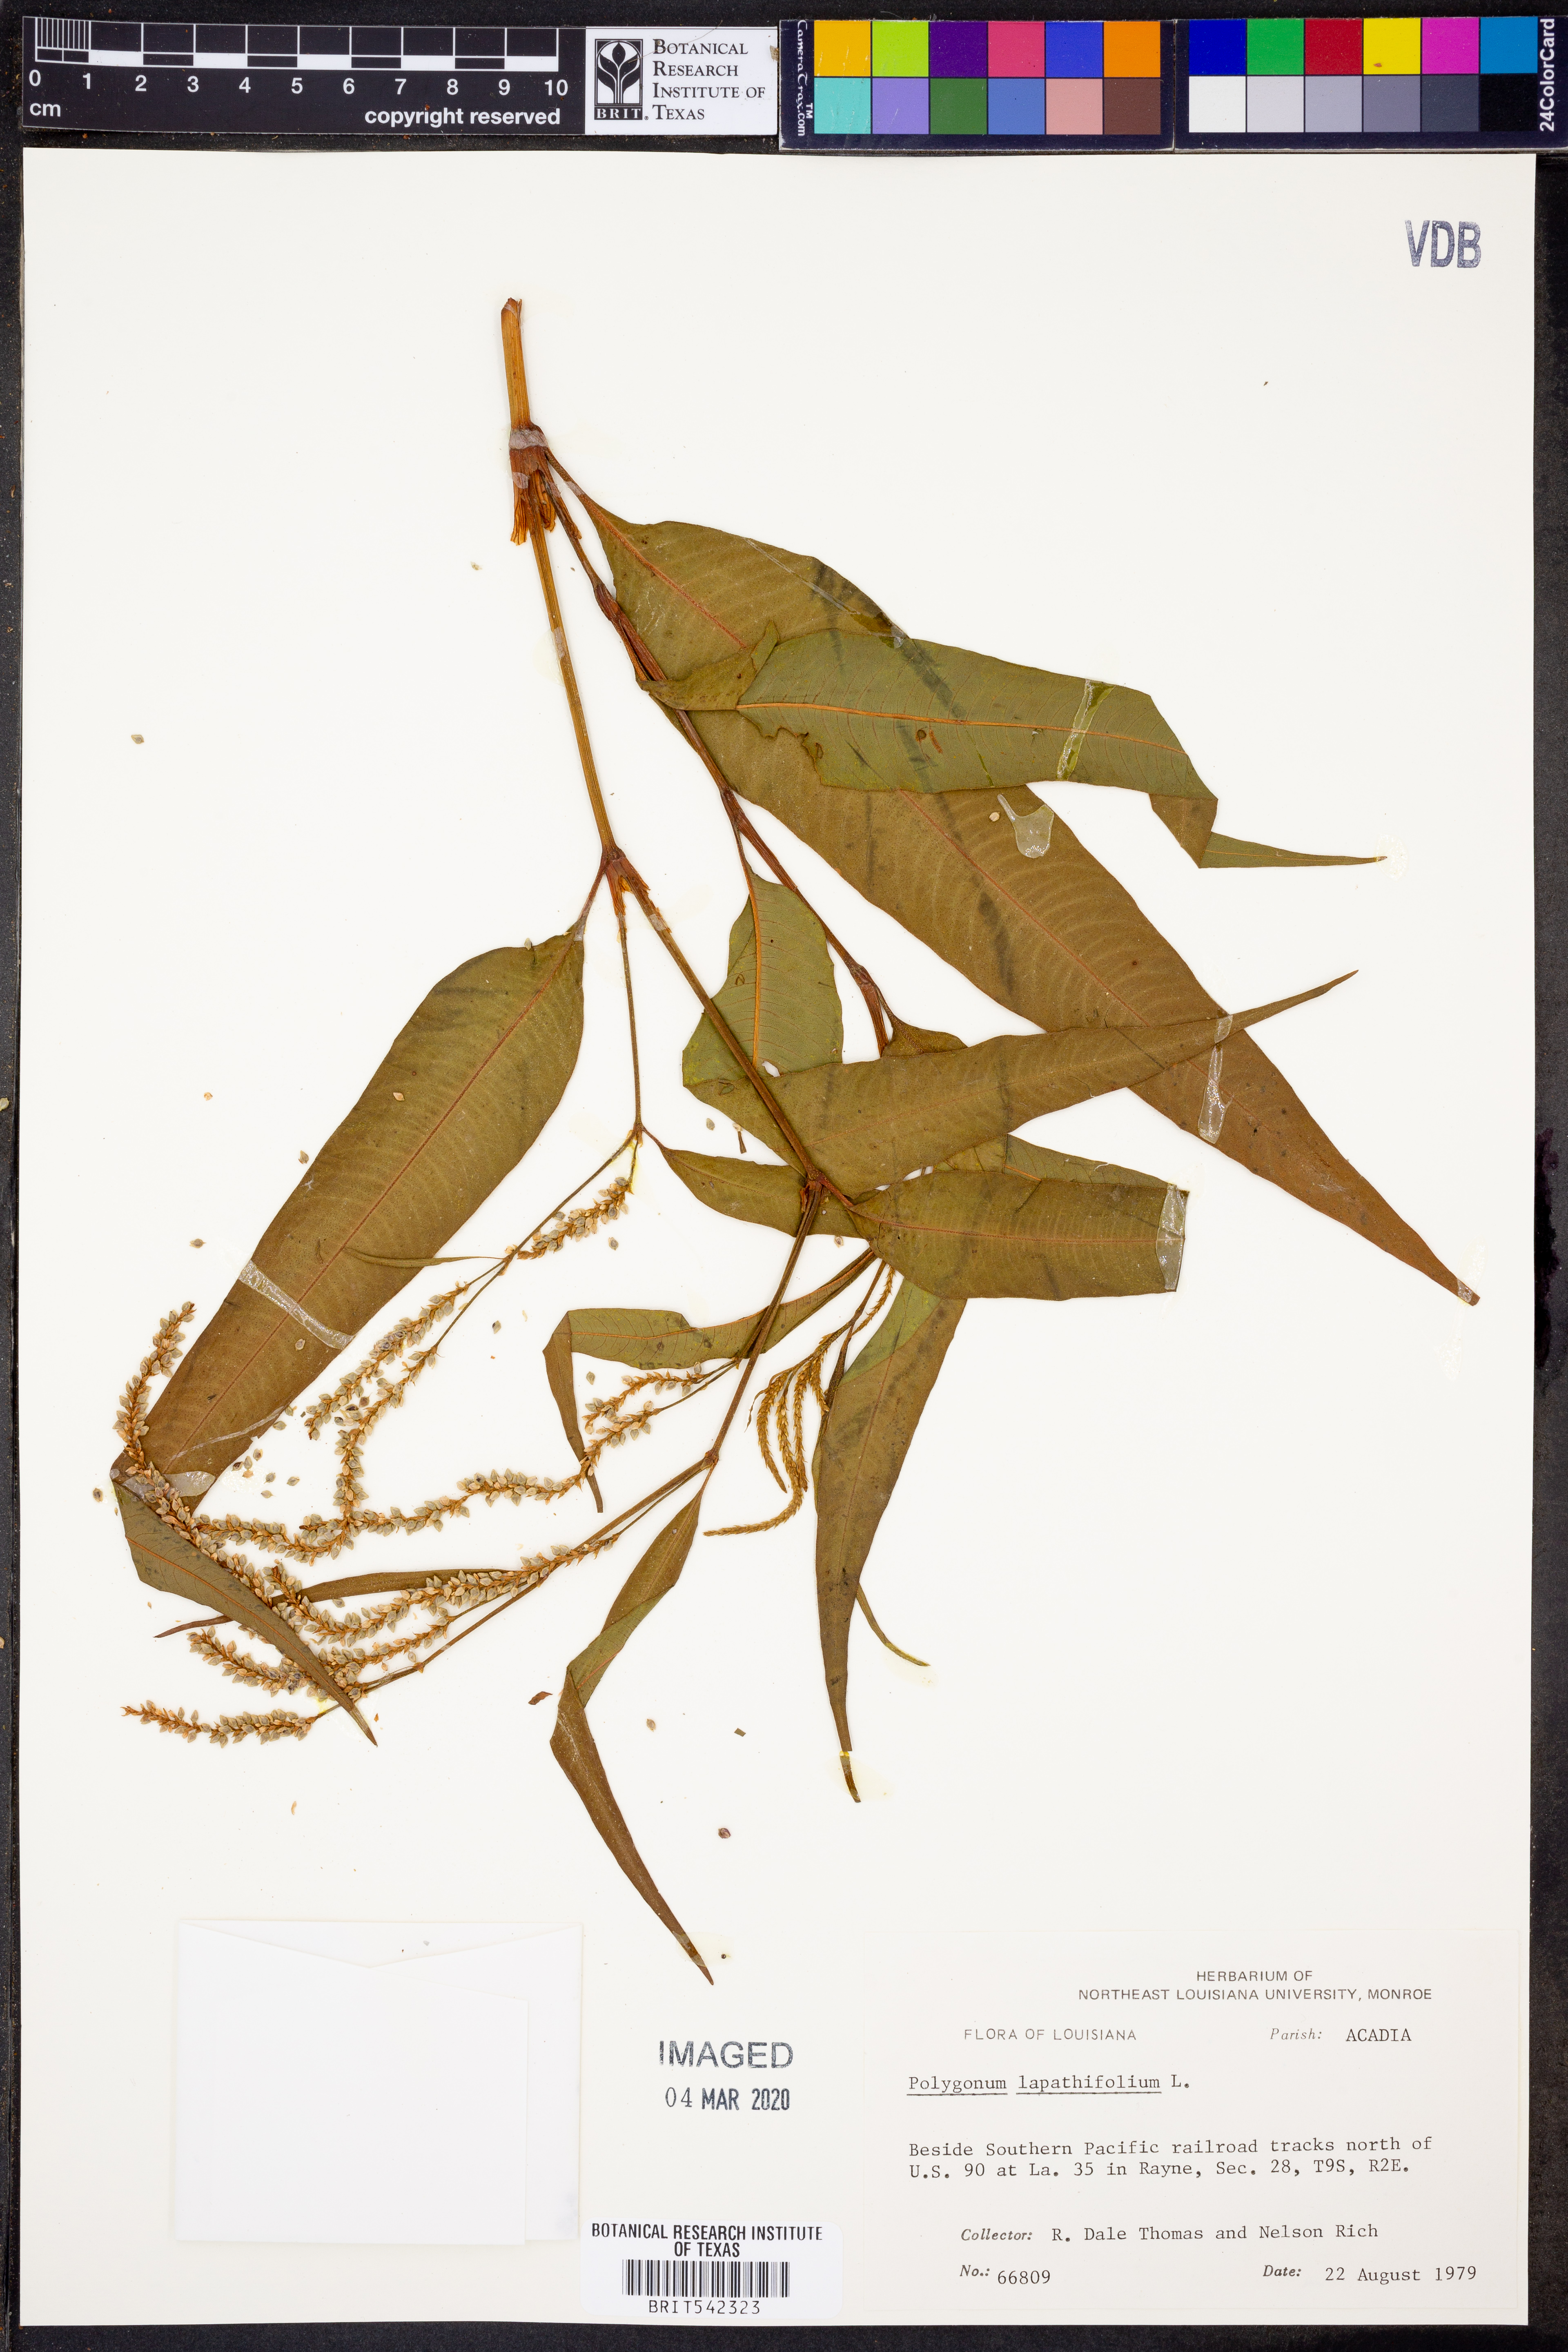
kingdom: Plantae
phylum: Tracheophyta
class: Magnoliopsida
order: Caryophyllales
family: Polygonaceae
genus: Persicaria
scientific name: Persicaria lapathifolia
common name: Curlytop knotweed
